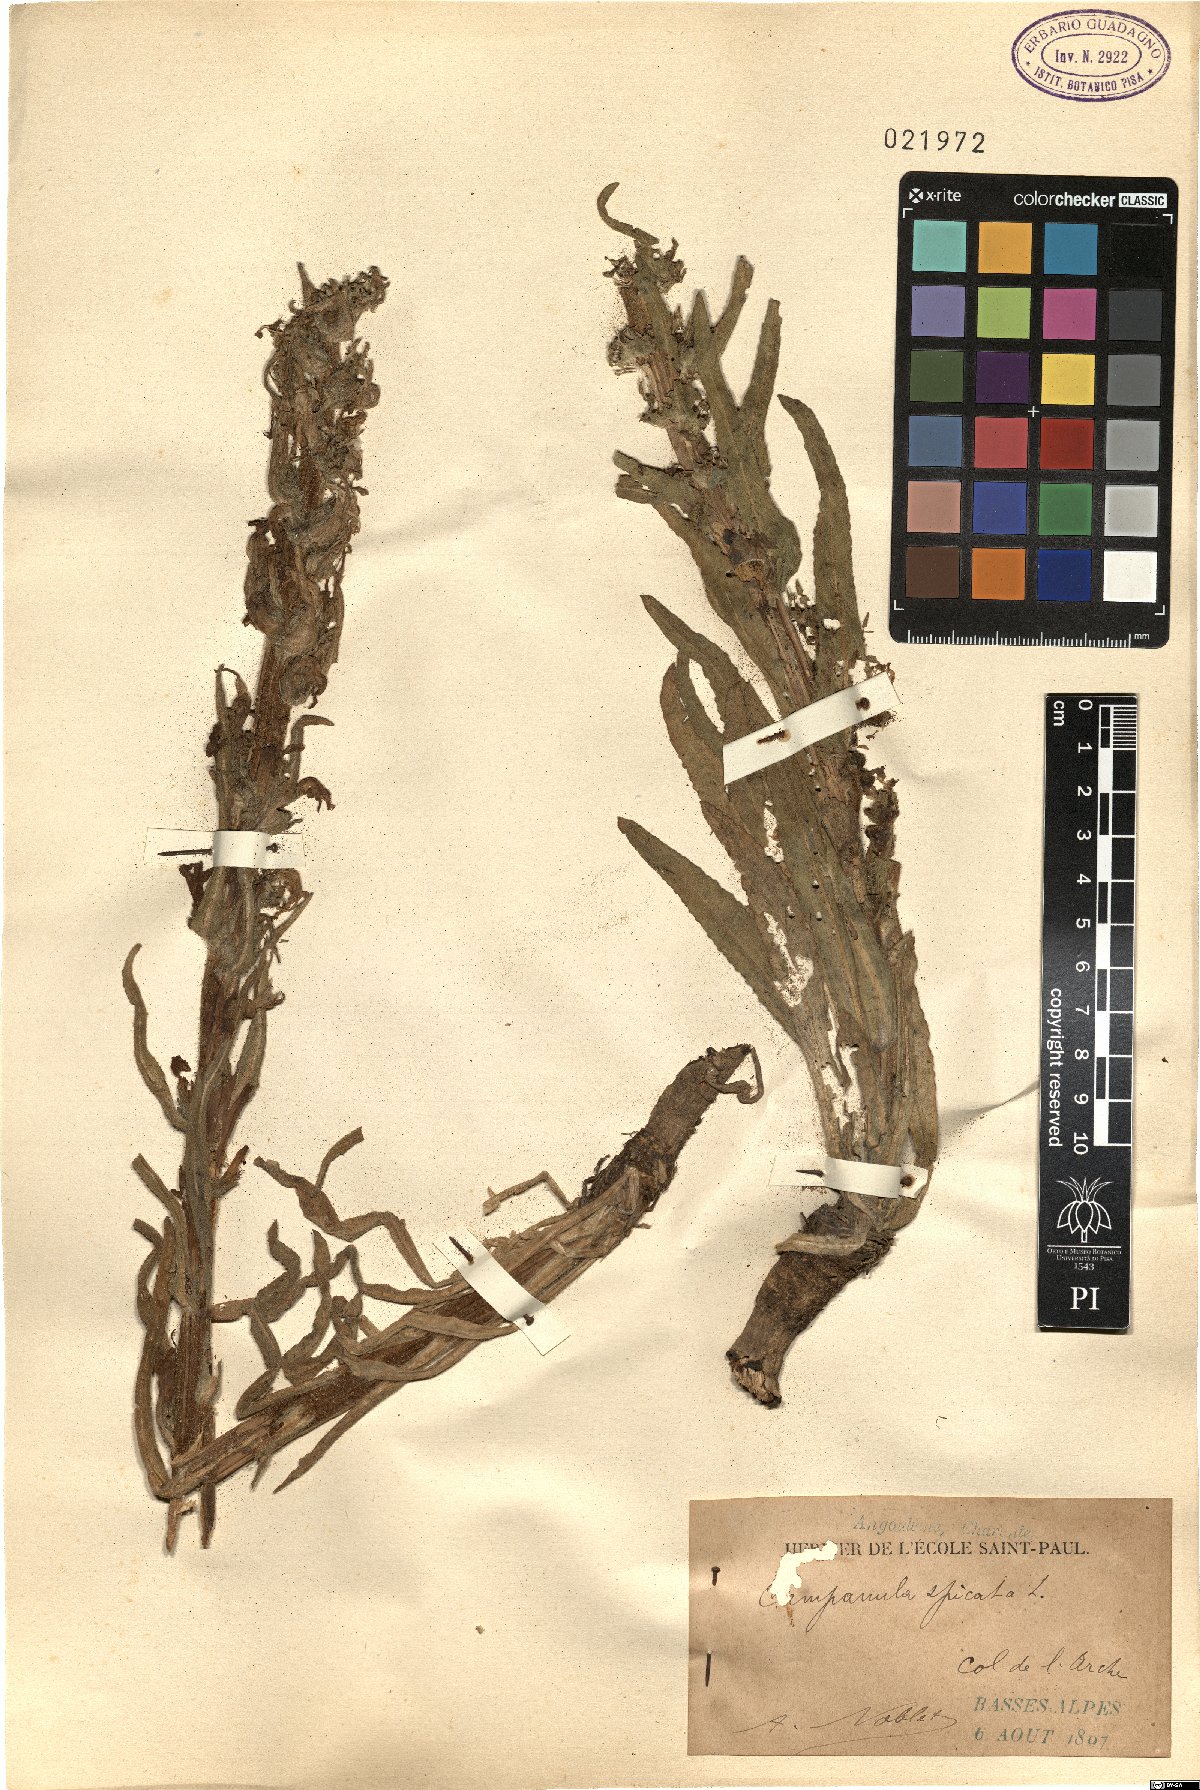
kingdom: Plantae
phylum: Tracheophyta
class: Magnoliopsida
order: Asterales
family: Campanulaceae
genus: Campanula
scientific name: Campanula spicata
